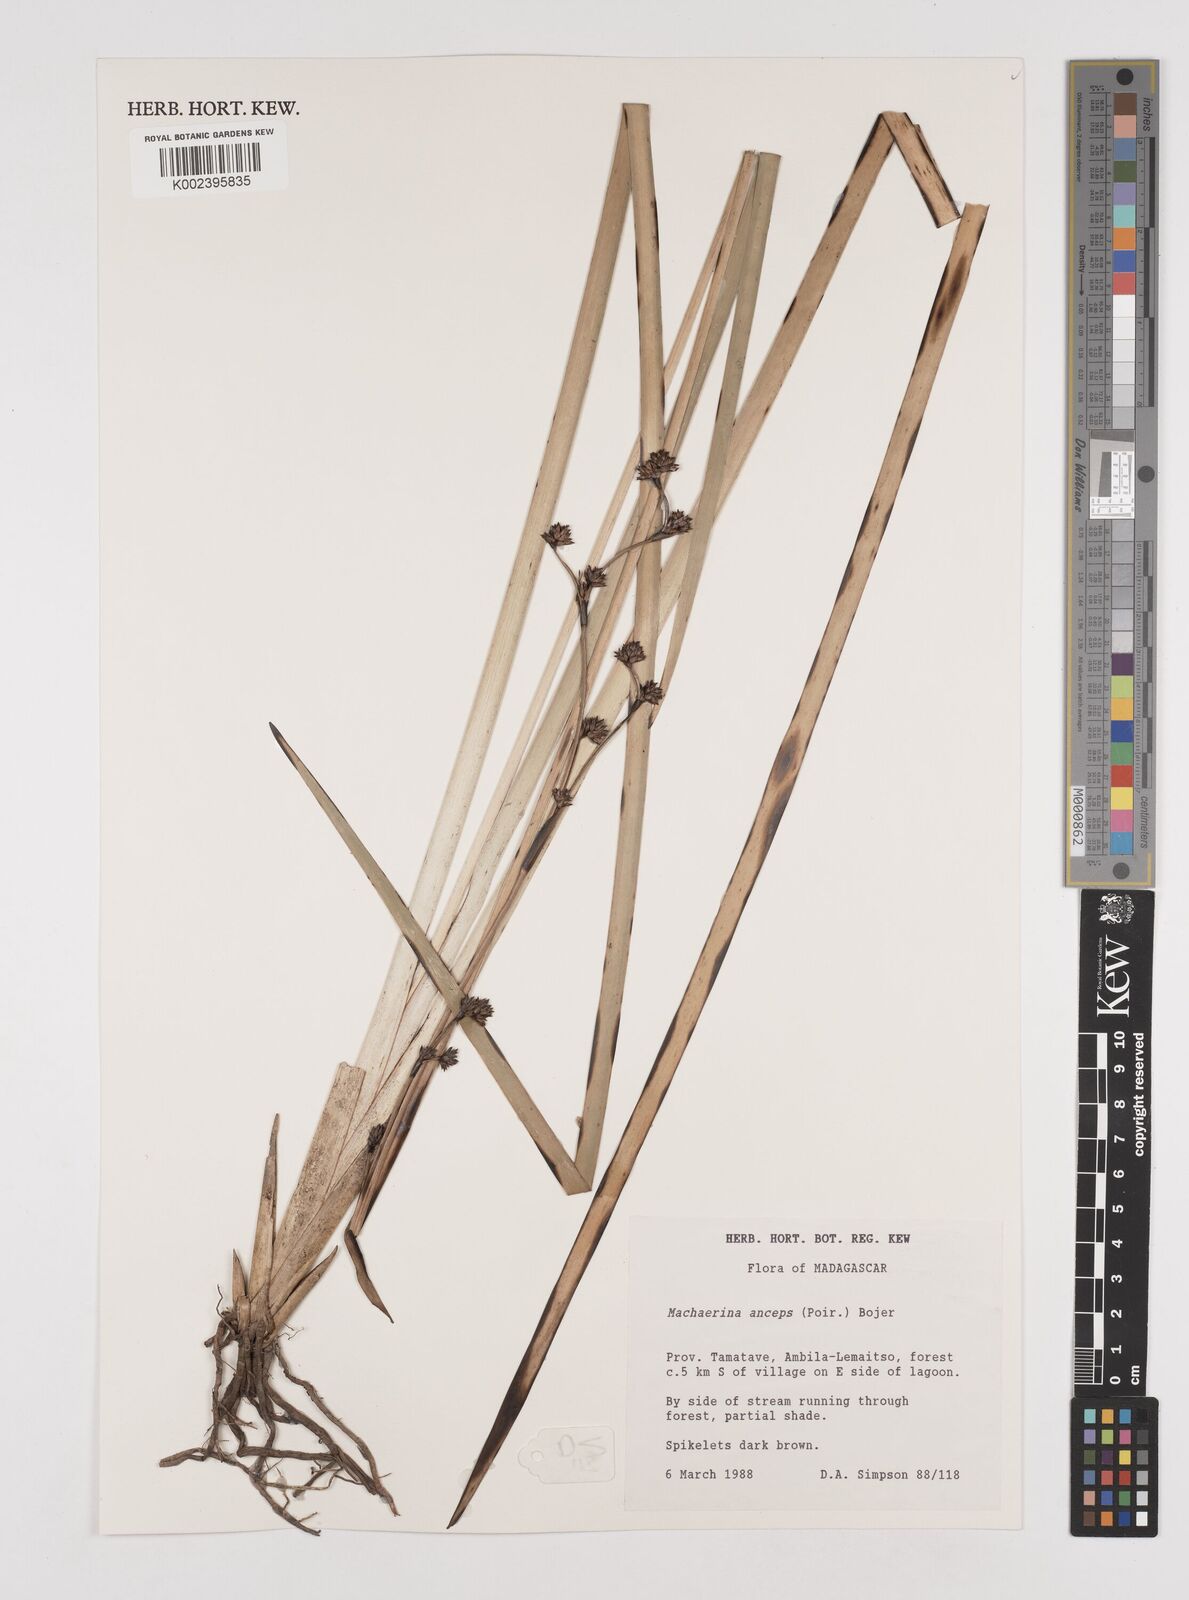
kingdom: Plantae
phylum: Tracheophyta
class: Liliopsida
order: Poales
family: Cyperaceae
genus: Machaerina
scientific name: Machaerina anceps
